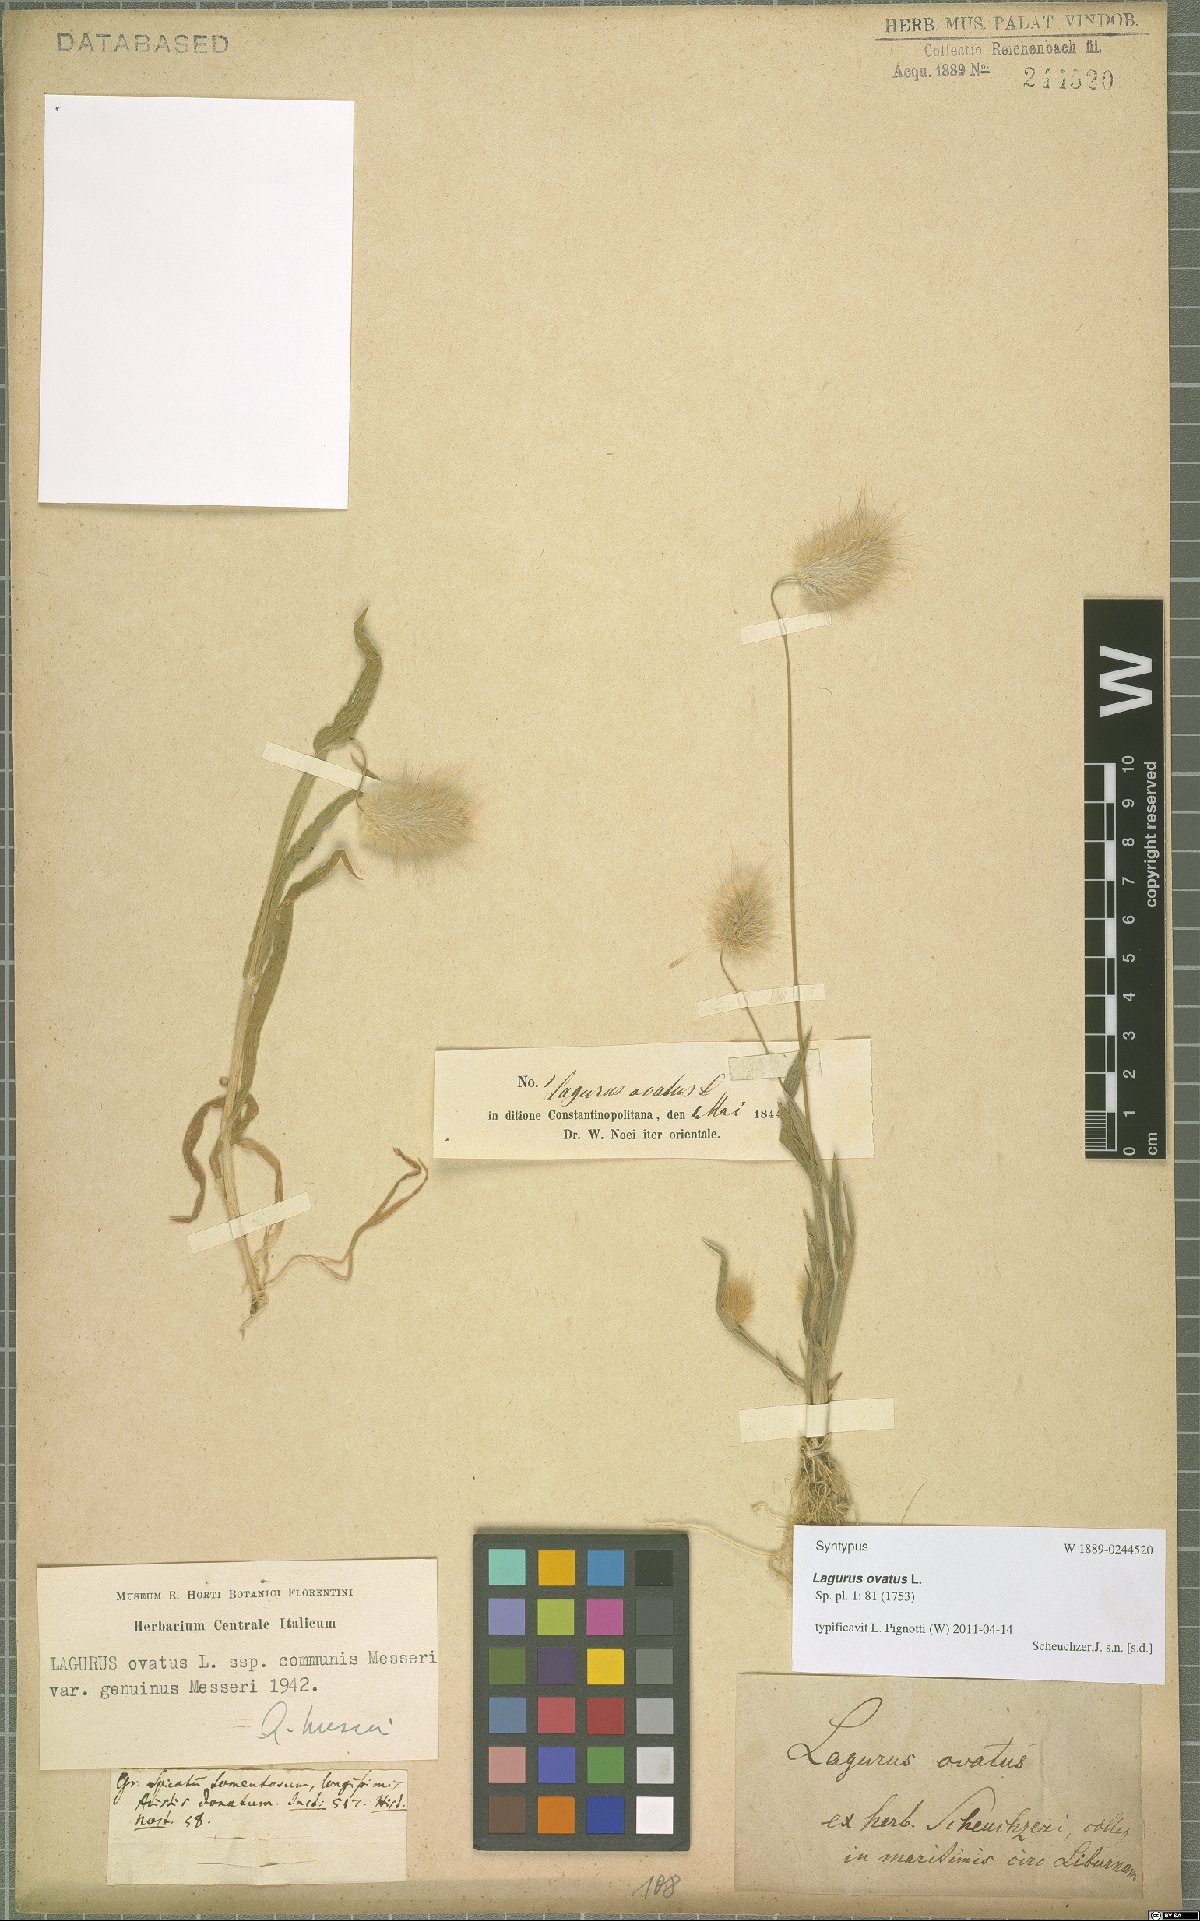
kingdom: Plantae
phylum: Tracheophyta
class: Liliopsida
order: Poales
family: Poaceae
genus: Lagurus
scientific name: Lagurus ovatus
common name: Hare's-tail
